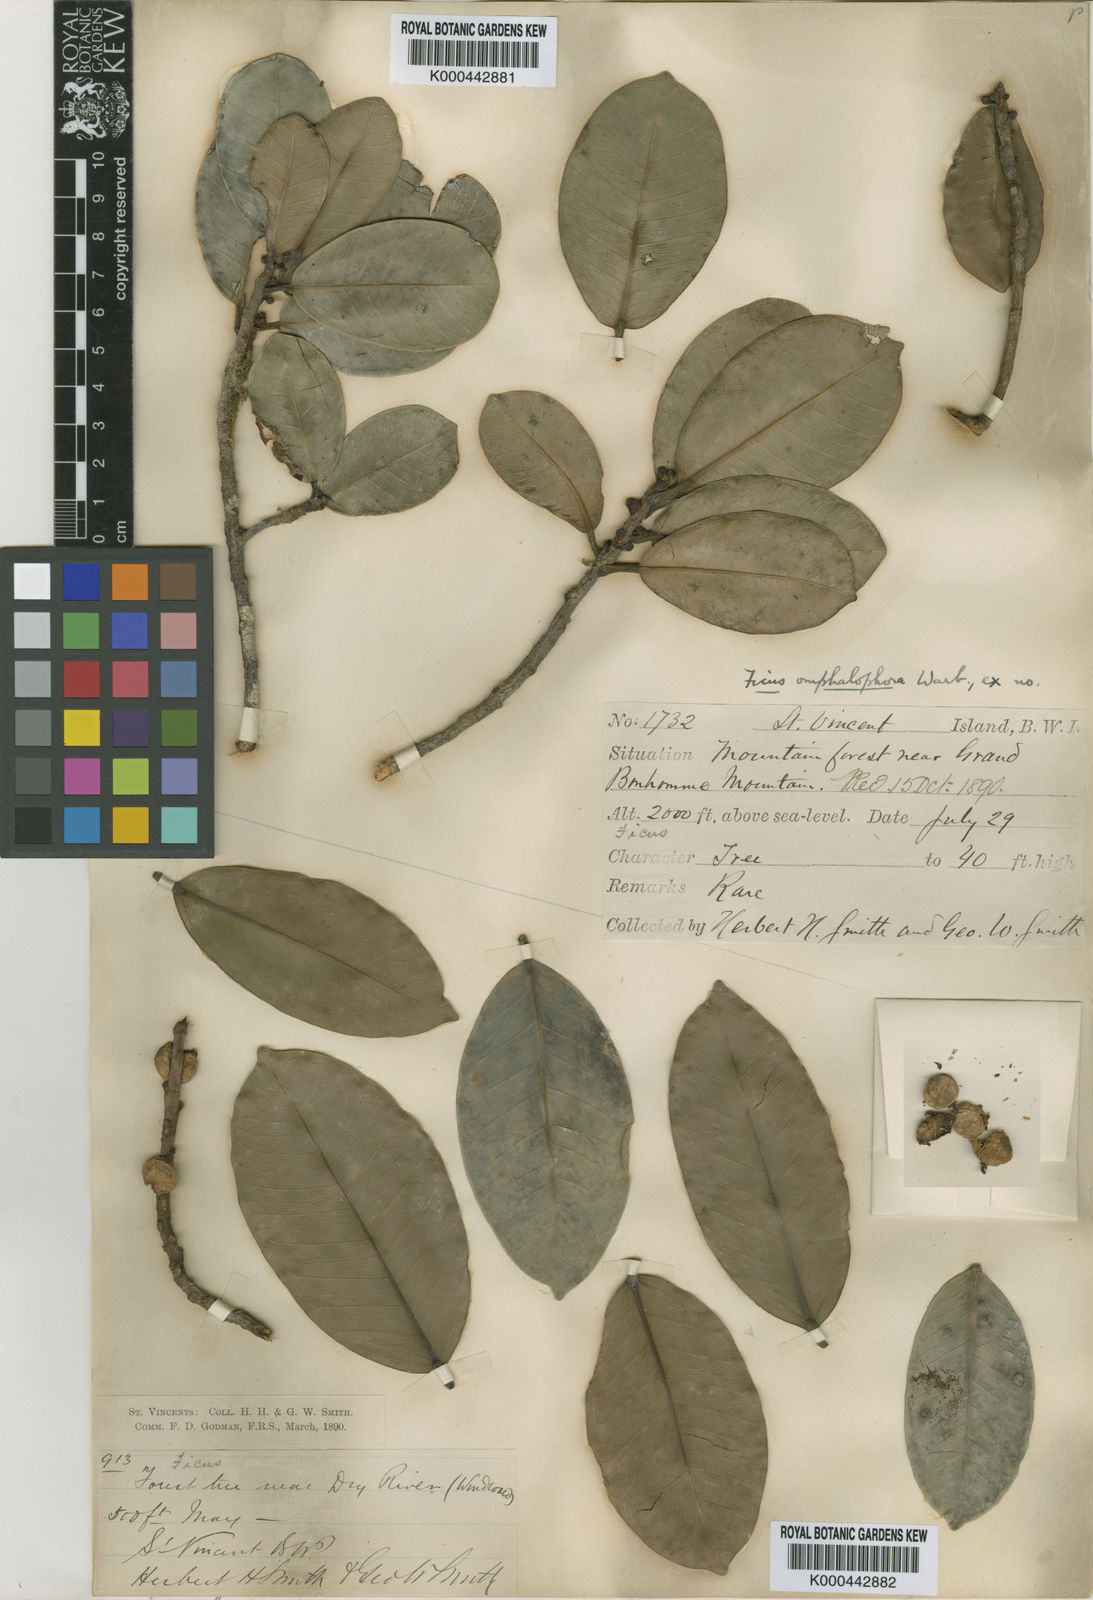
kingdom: Plantae
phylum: Tracheophyta
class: Magnoliopsida
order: Rosales
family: Moraceae
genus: Ficus
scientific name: Ficus americana
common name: Jamaican cherry fig
